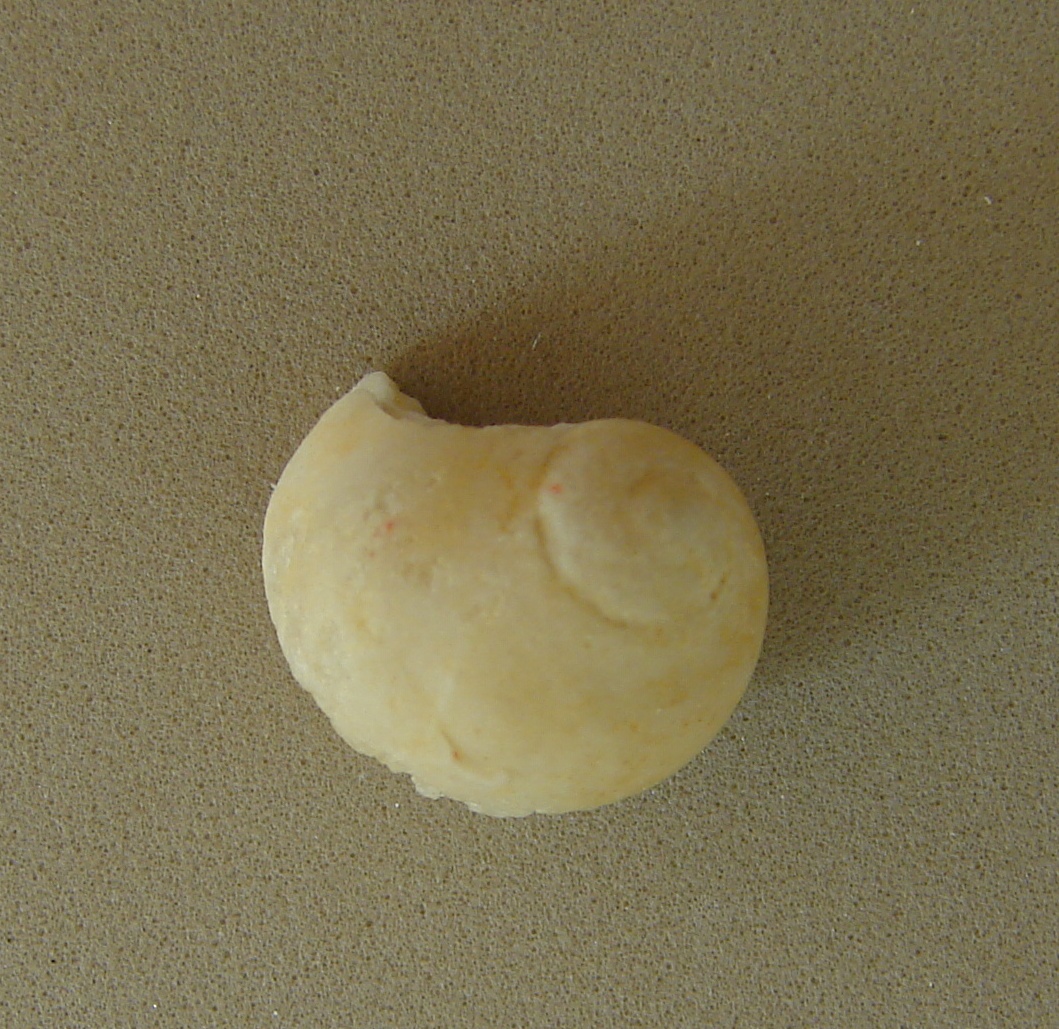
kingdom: Animalia
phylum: Mollusca
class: Gastropoda
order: Cycloneritida
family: Neridomidae
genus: Neridomus
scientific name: Neridomus liasina
